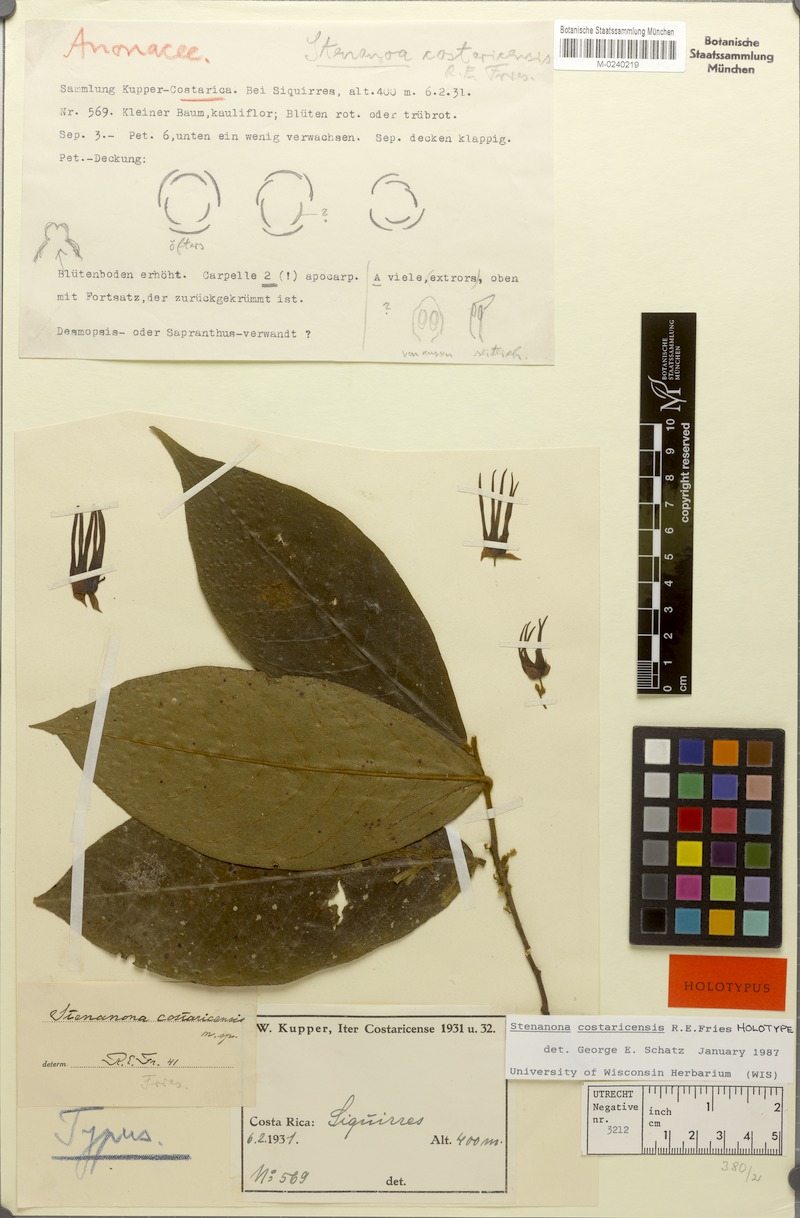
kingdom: Plantae
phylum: Tracheophyta
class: Magnoliopsida
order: Magnoliales
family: Annonaceae
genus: Stenanona
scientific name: Stenanona costaricensis
